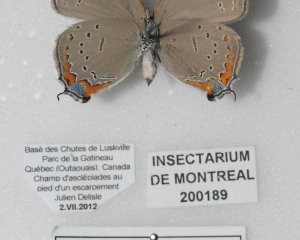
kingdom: Animalia
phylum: Arthropoda
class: Insecta
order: Lepidoptera
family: Lycaenidae
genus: Strymon
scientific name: Strymon acadica
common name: Acadian Hairstreak
